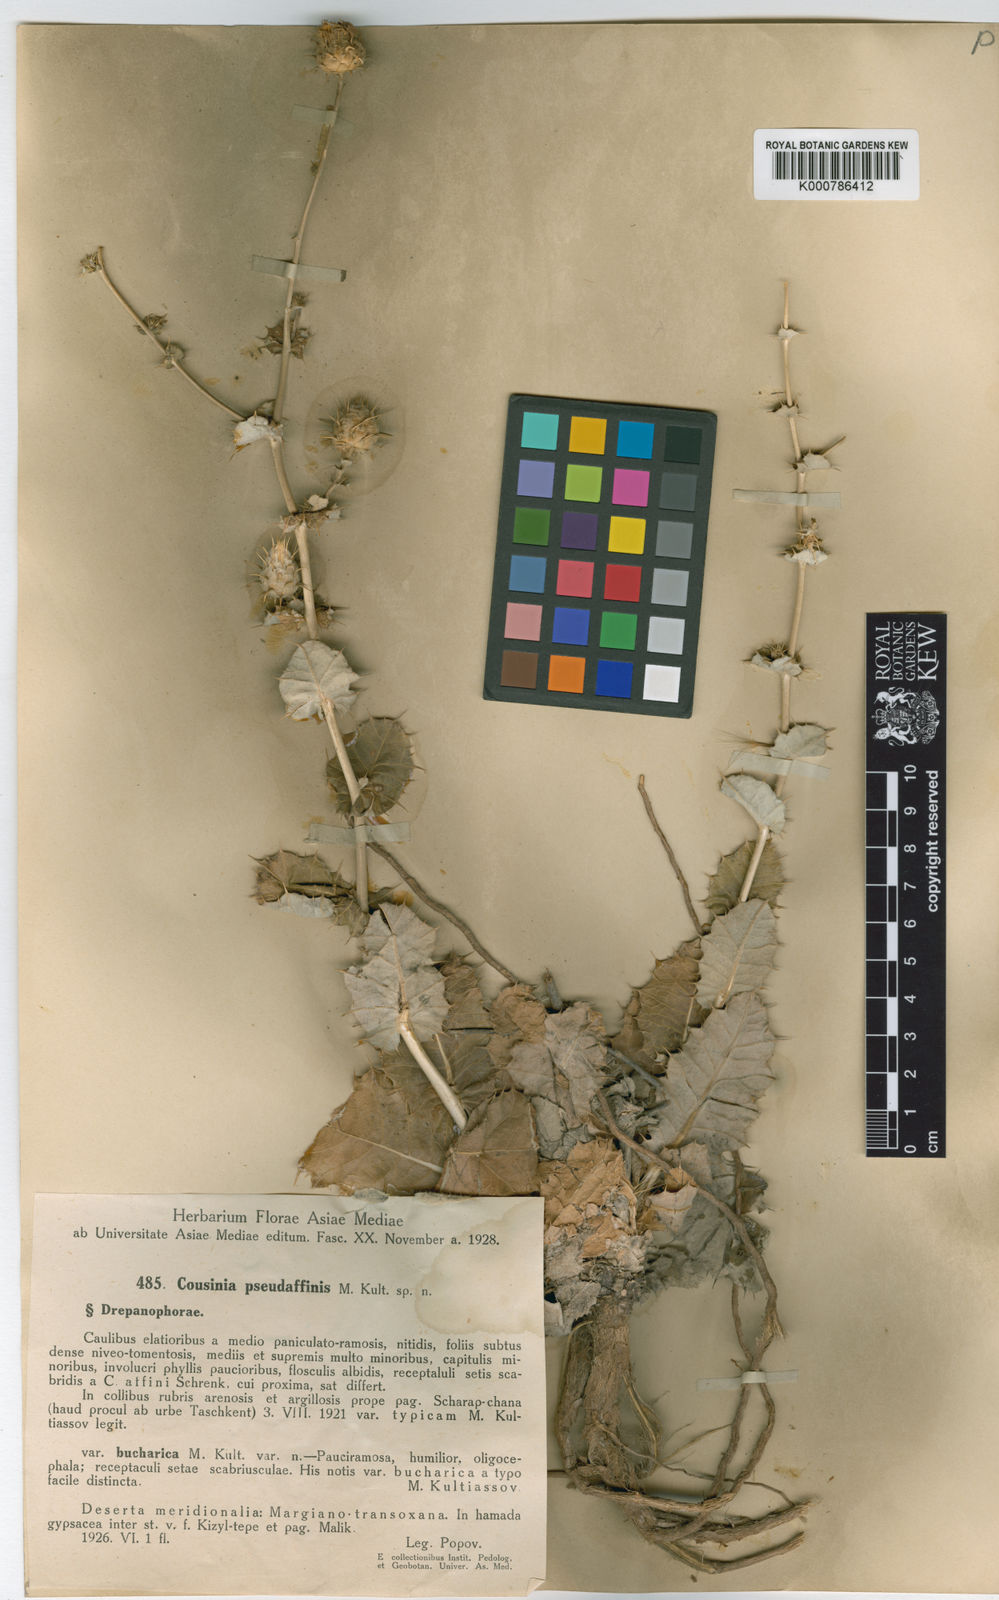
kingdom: Plantae
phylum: Tracheophyta
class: Magnoliopsida
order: Asterales
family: Asteraceae
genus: Cousinia
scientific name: Cousinia hamadae
